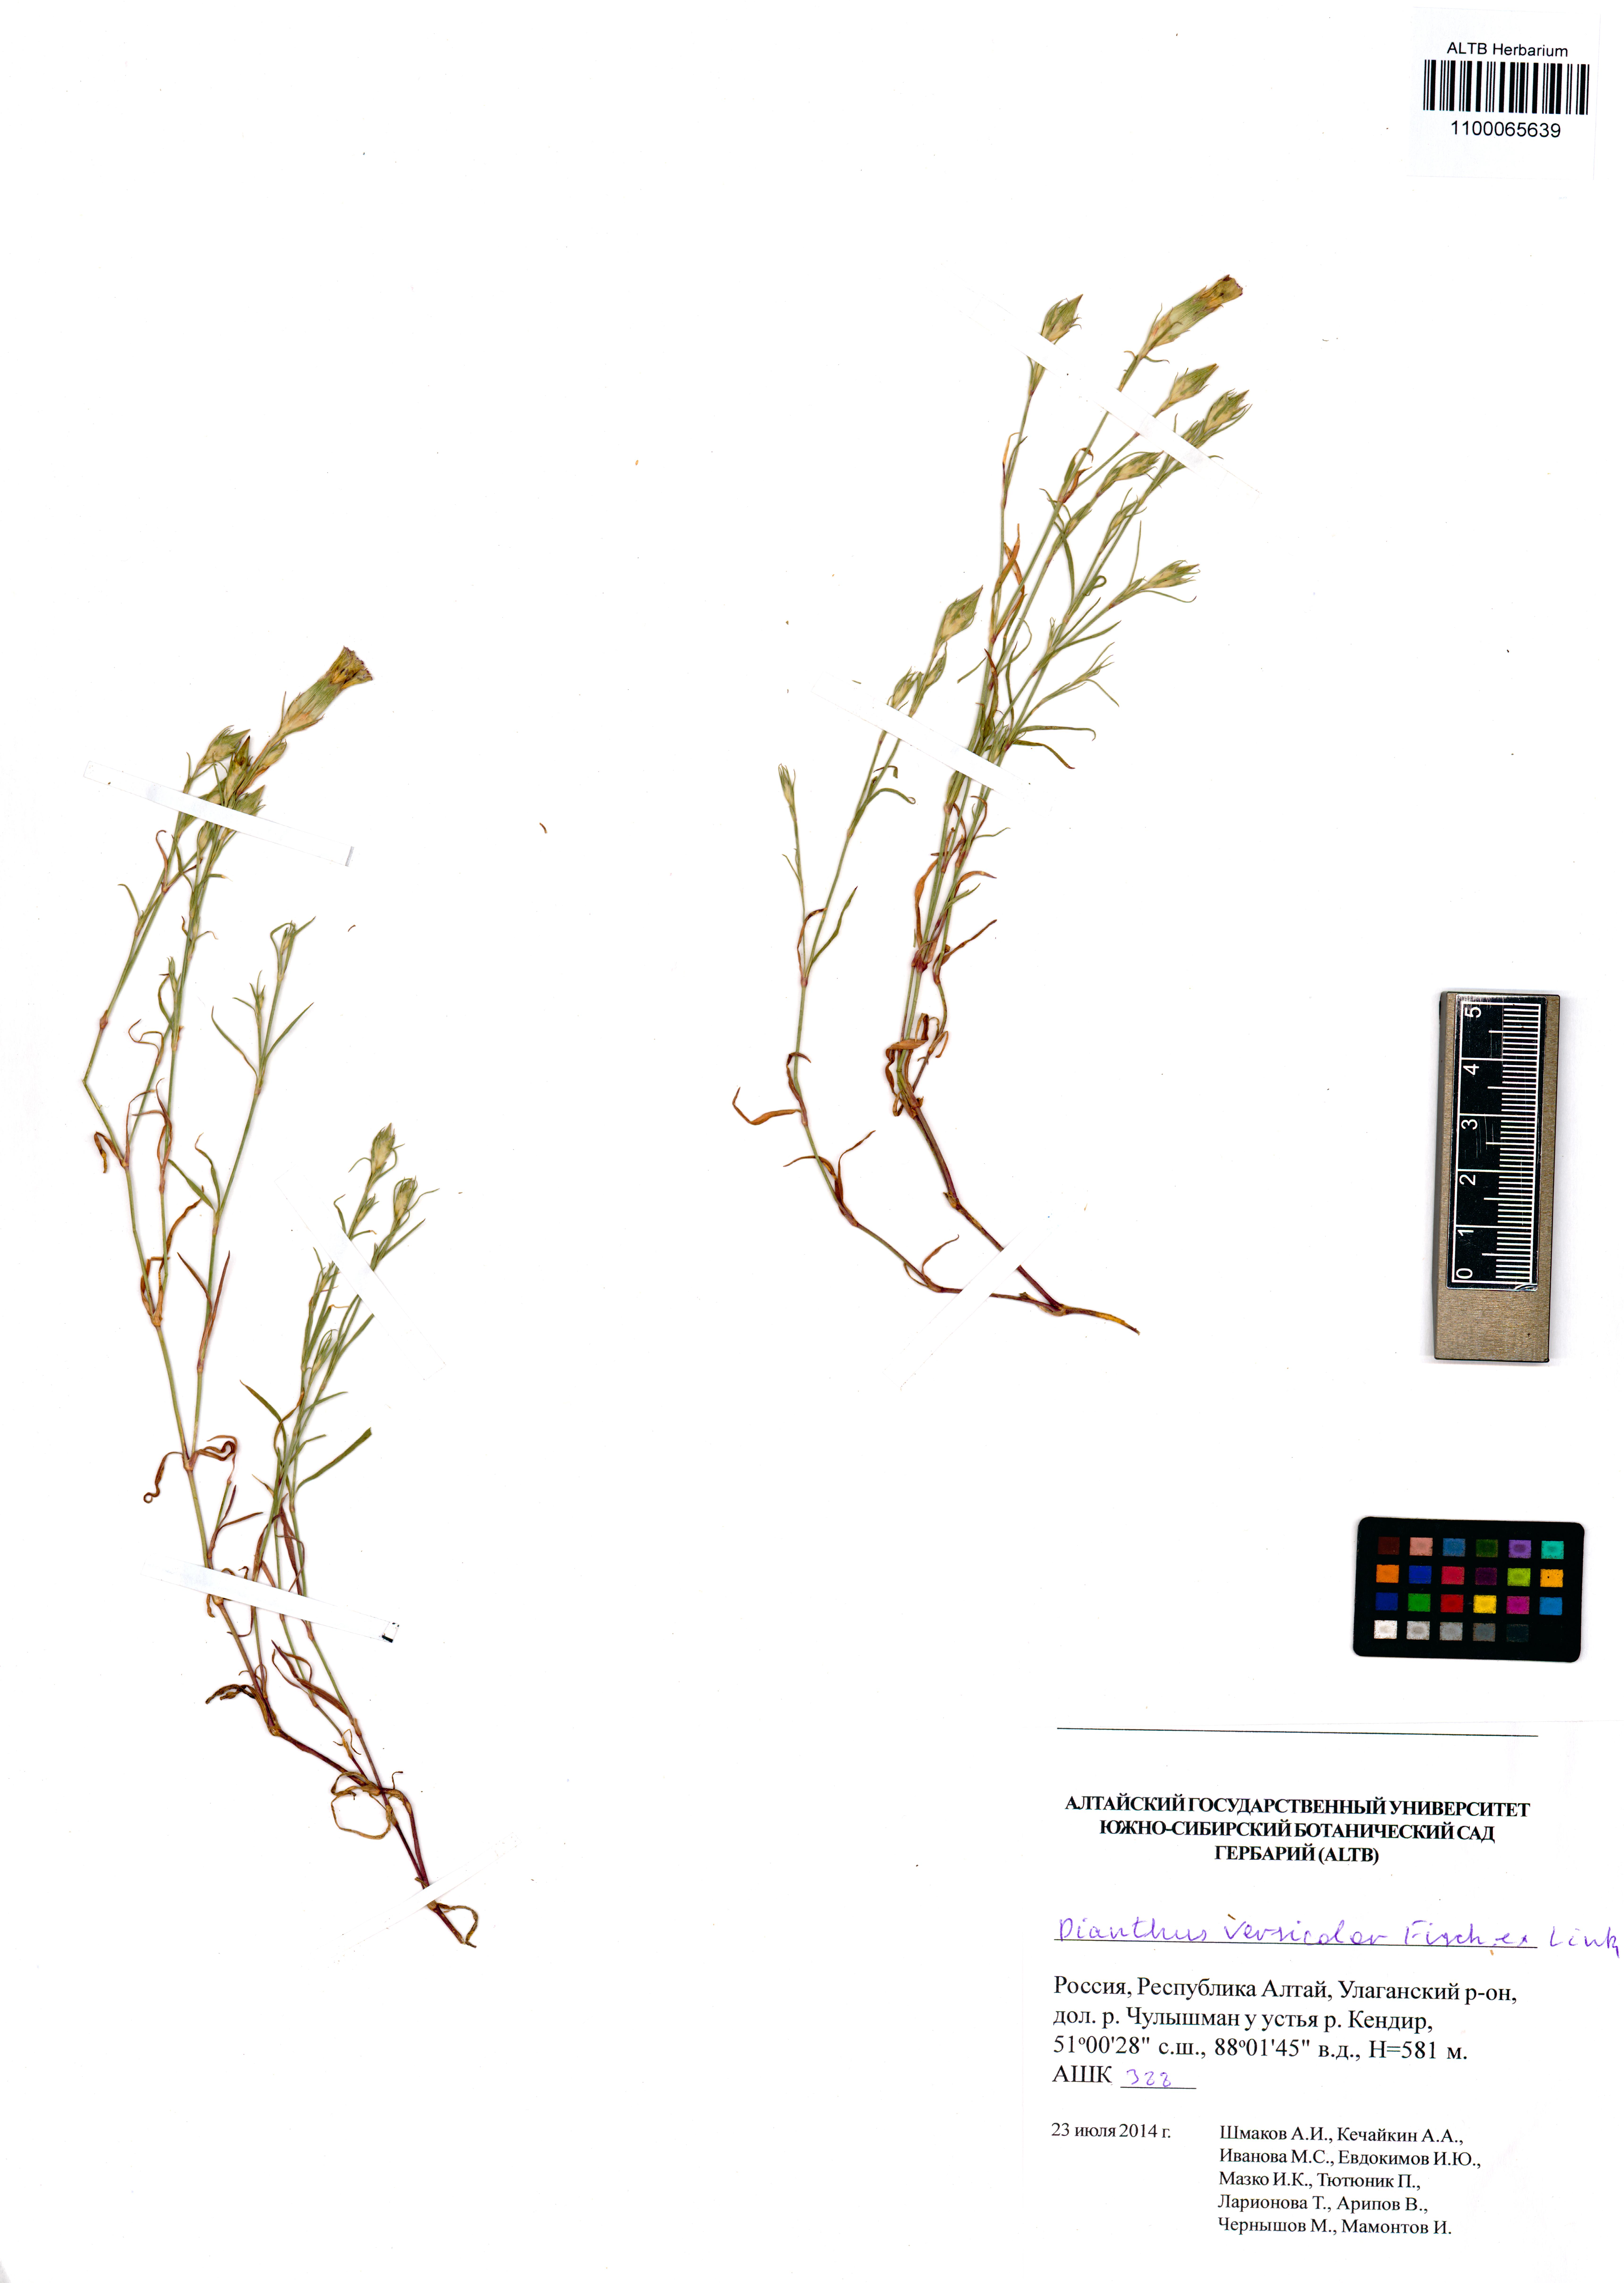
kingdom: Plantae
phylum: Tracheophyta
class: Magnoliopsida
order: Caryophyllales
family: Caryophyllaceae
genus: Dianthus
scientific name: Dianthus chinensis
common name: Rainbow pink
